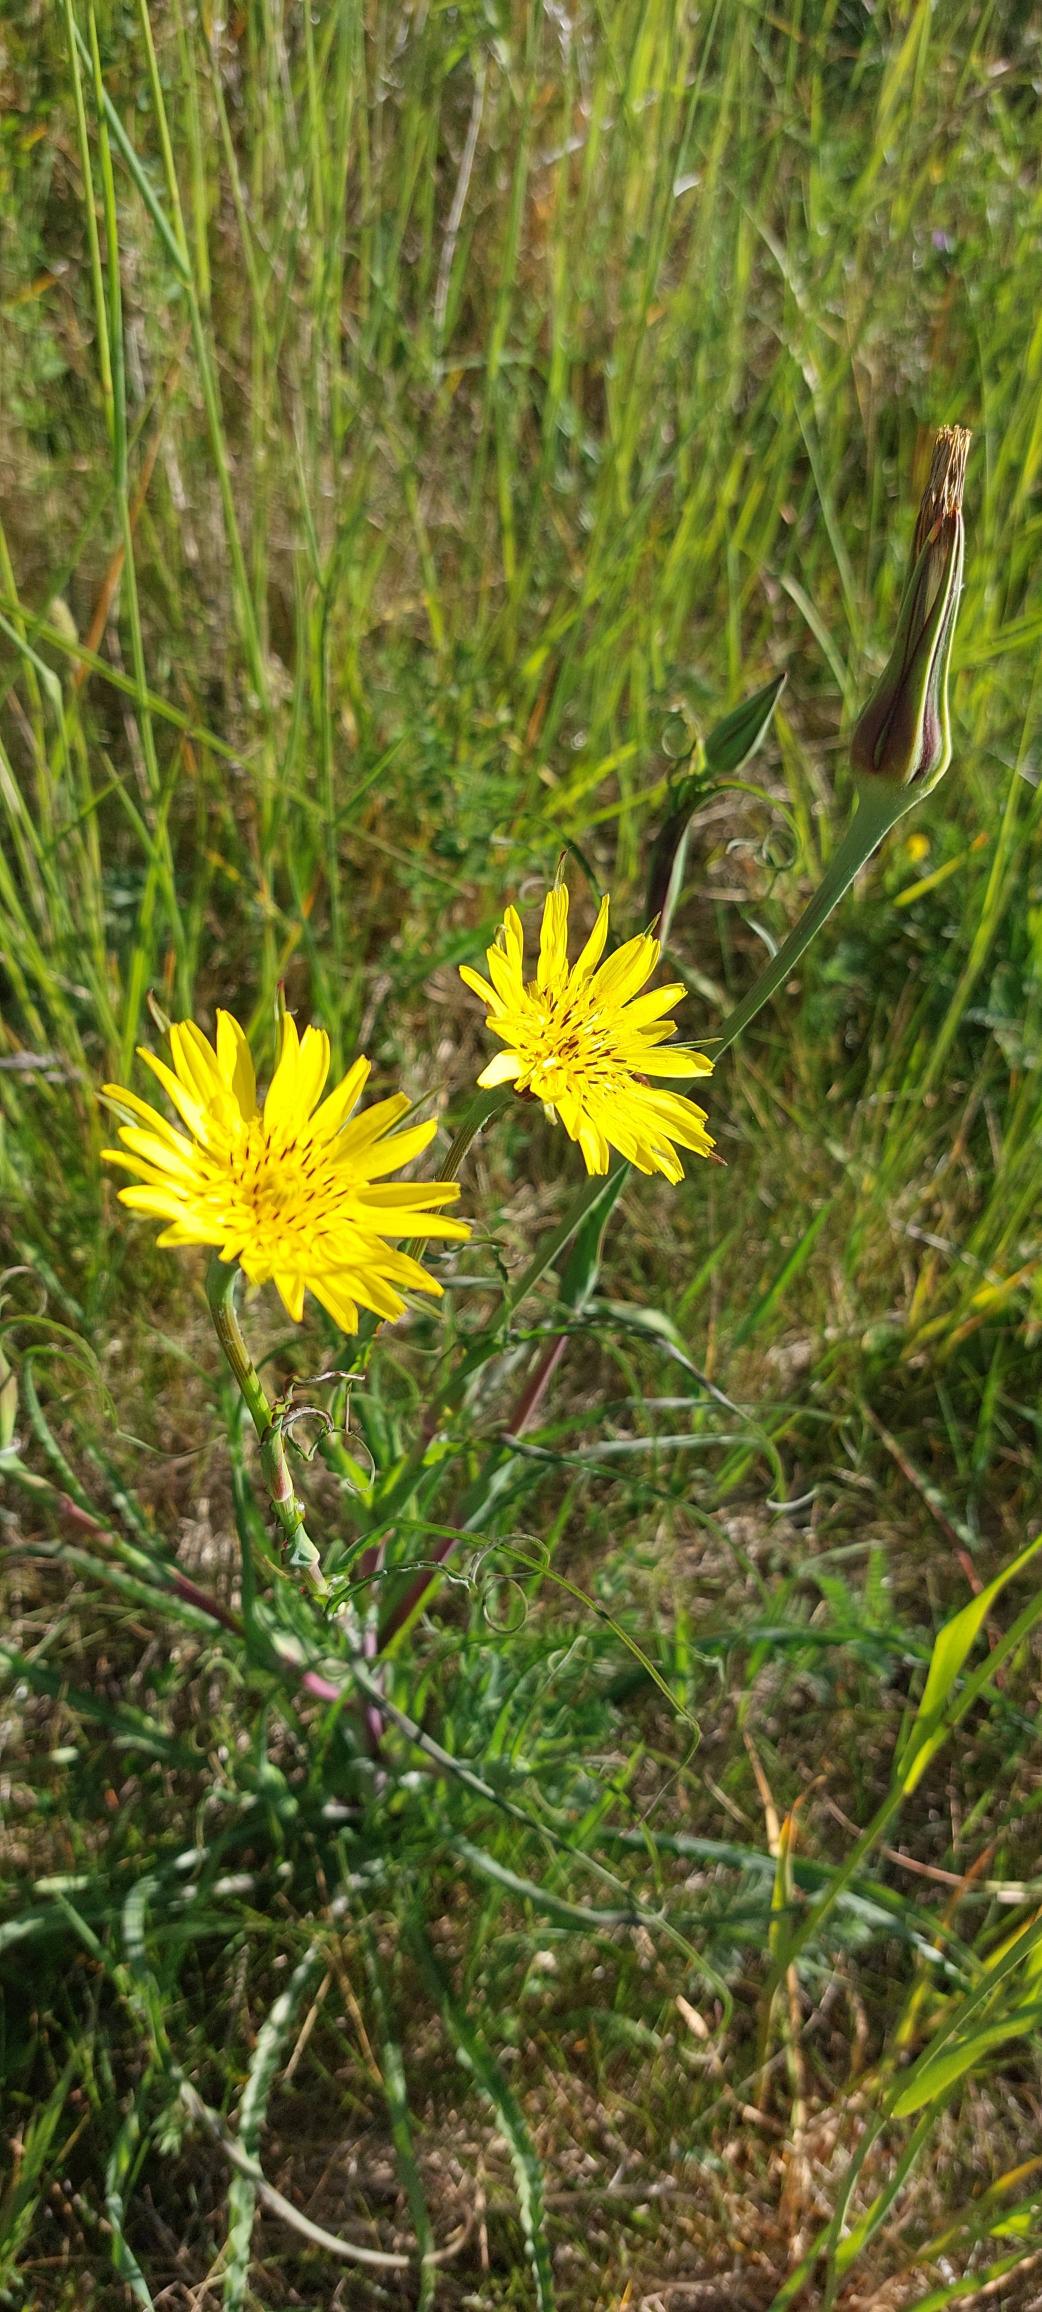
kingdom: Plantae
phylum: Tracheophyta
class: Magnoliopsida
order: Asterales
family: Asteraceae
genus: Tragopogon
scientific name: Tragopogon pratensis
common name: Gedeskæg
